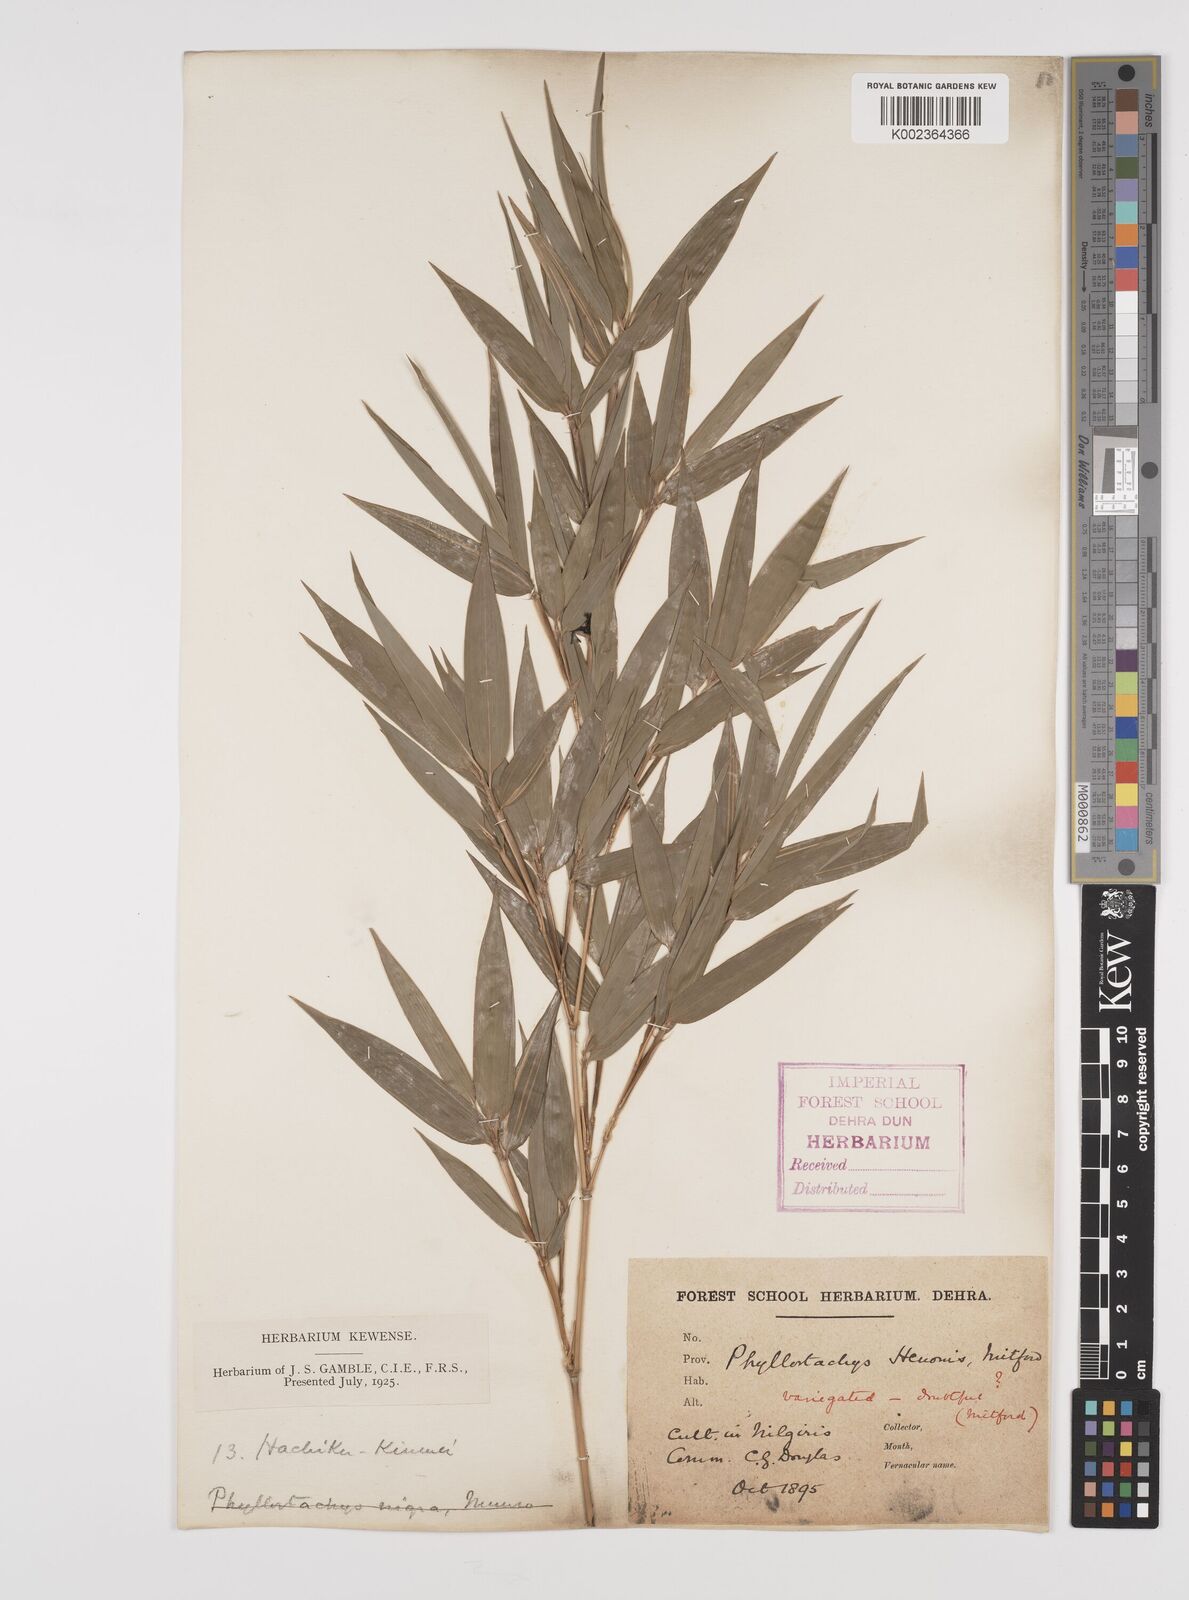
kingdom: Plantae
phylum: Tracheophyta
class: Liliopsida
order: Poales
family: Poaceae
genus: Phyllostachys
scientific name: Phyllostachys nigra
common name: Black bamboo
